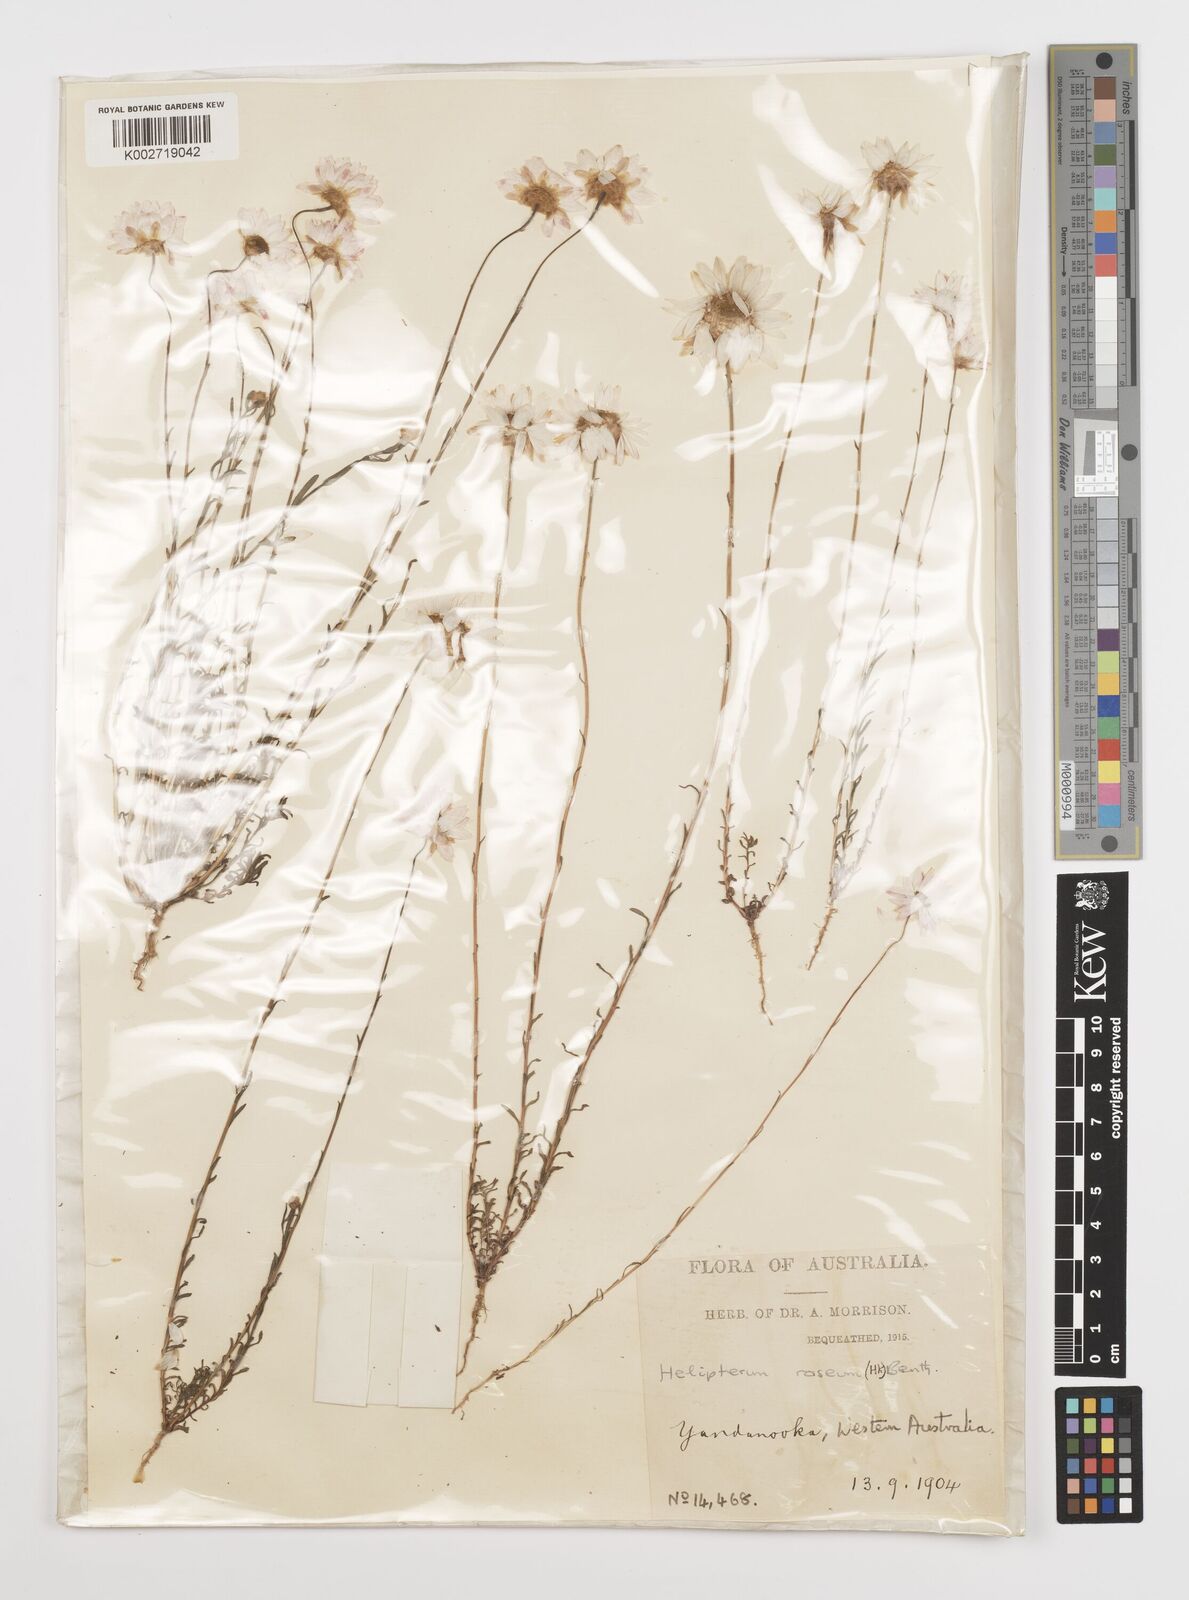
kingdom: Plantae
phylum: Tracheophyta
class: Magnoliopsida
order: Asterales
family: Asteraceae
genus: Rhodanthe
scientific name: Rhodanthe chlorocephala
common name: Rosy sunray
